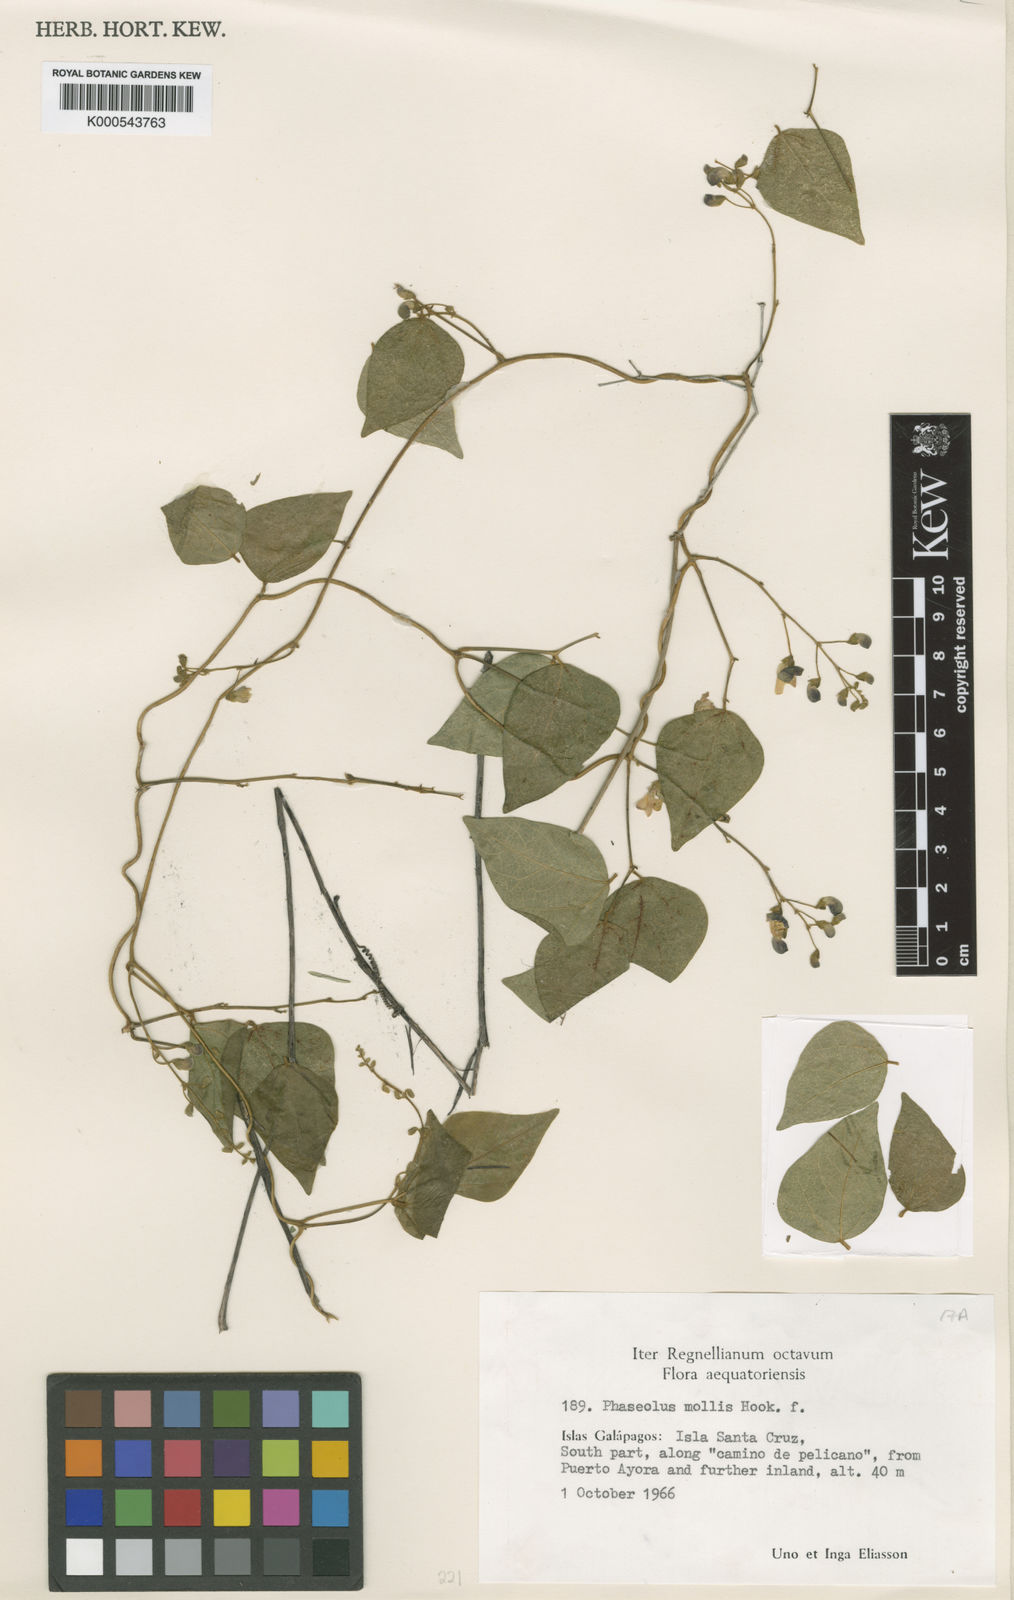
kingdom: Plantae
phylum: Tracheophyta
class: Magnoliopsida
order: Fabales
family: Fabaceae
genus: Phaseolus
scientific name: Phaseolus mollis
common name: Galapagos bean
